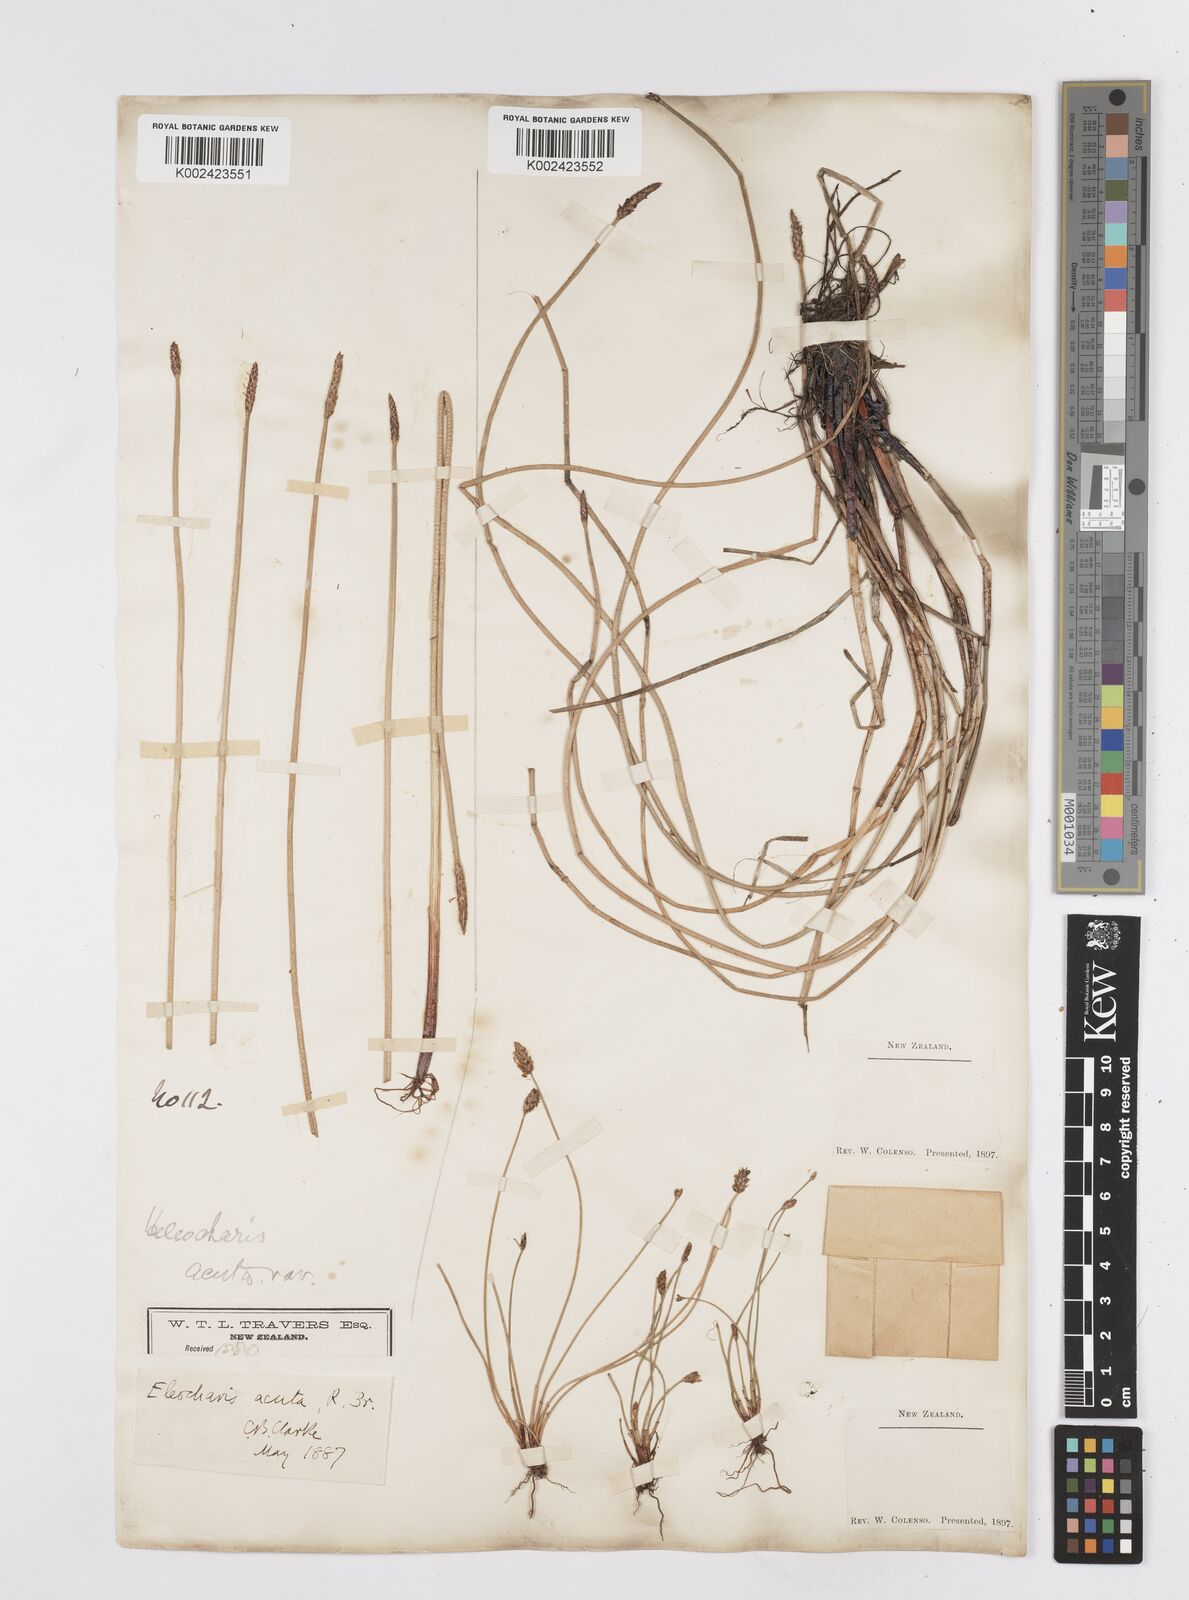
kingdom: Plantae
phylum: Tracheophyta
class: Liliopsida
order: Poales
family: Cyperaceae
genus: Eleocharis
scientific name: Eleocharis acuta
